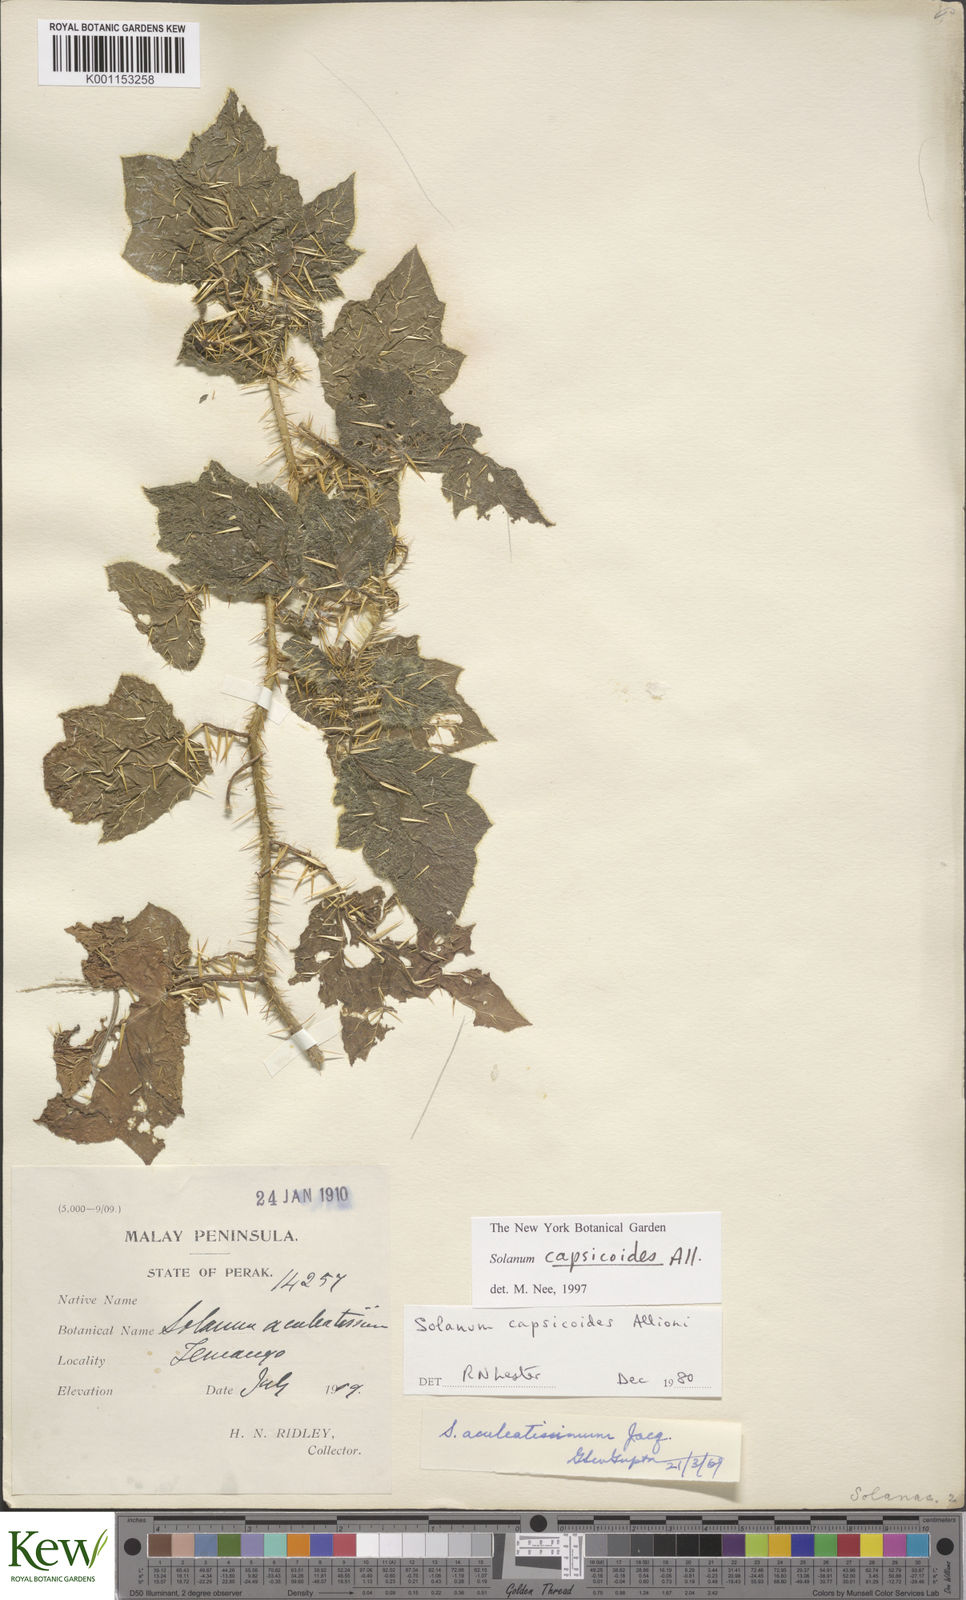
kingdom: Plantae
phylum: Tracheophyta
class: Magnoliopsida
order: Solanales
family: Solanaceae
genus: Solanum
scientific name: Solanum capsicoides
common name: Cockroach berry
